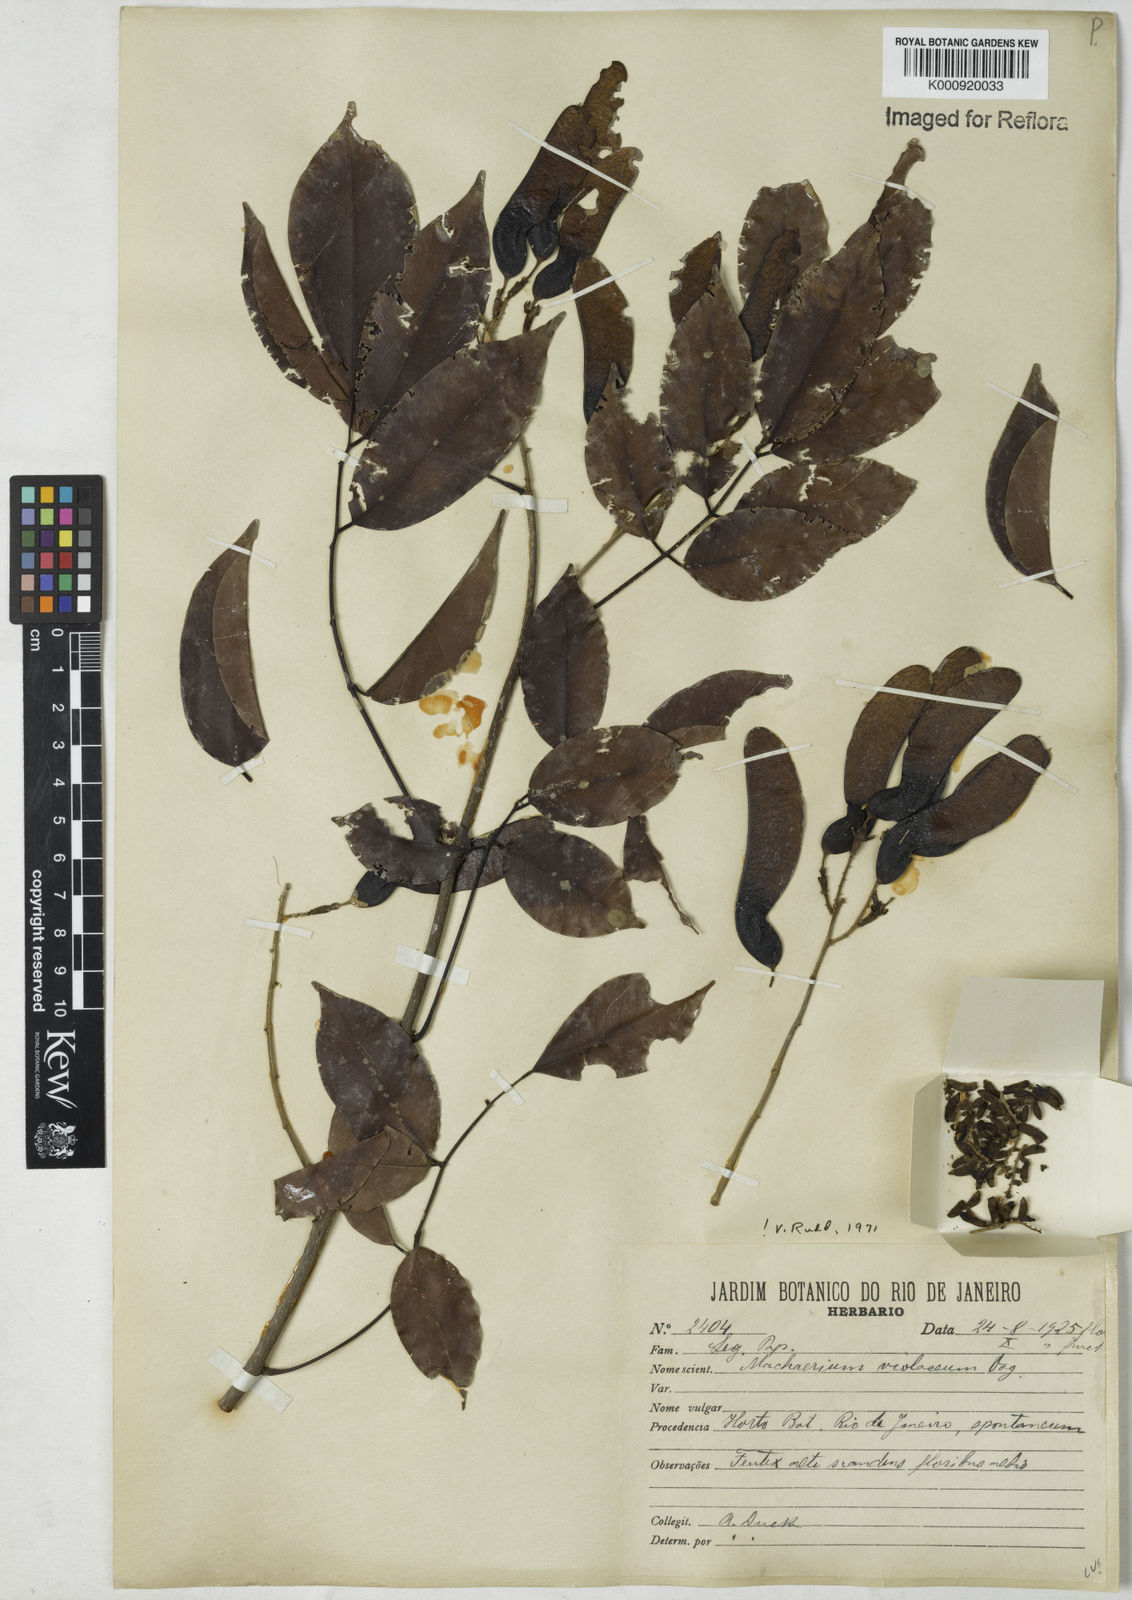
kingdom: Plantae
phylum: Tracheophyta
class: Magnoliopsida
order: Fabales
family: Fabaceae
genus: Machaerium
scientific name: Machaerium debile
